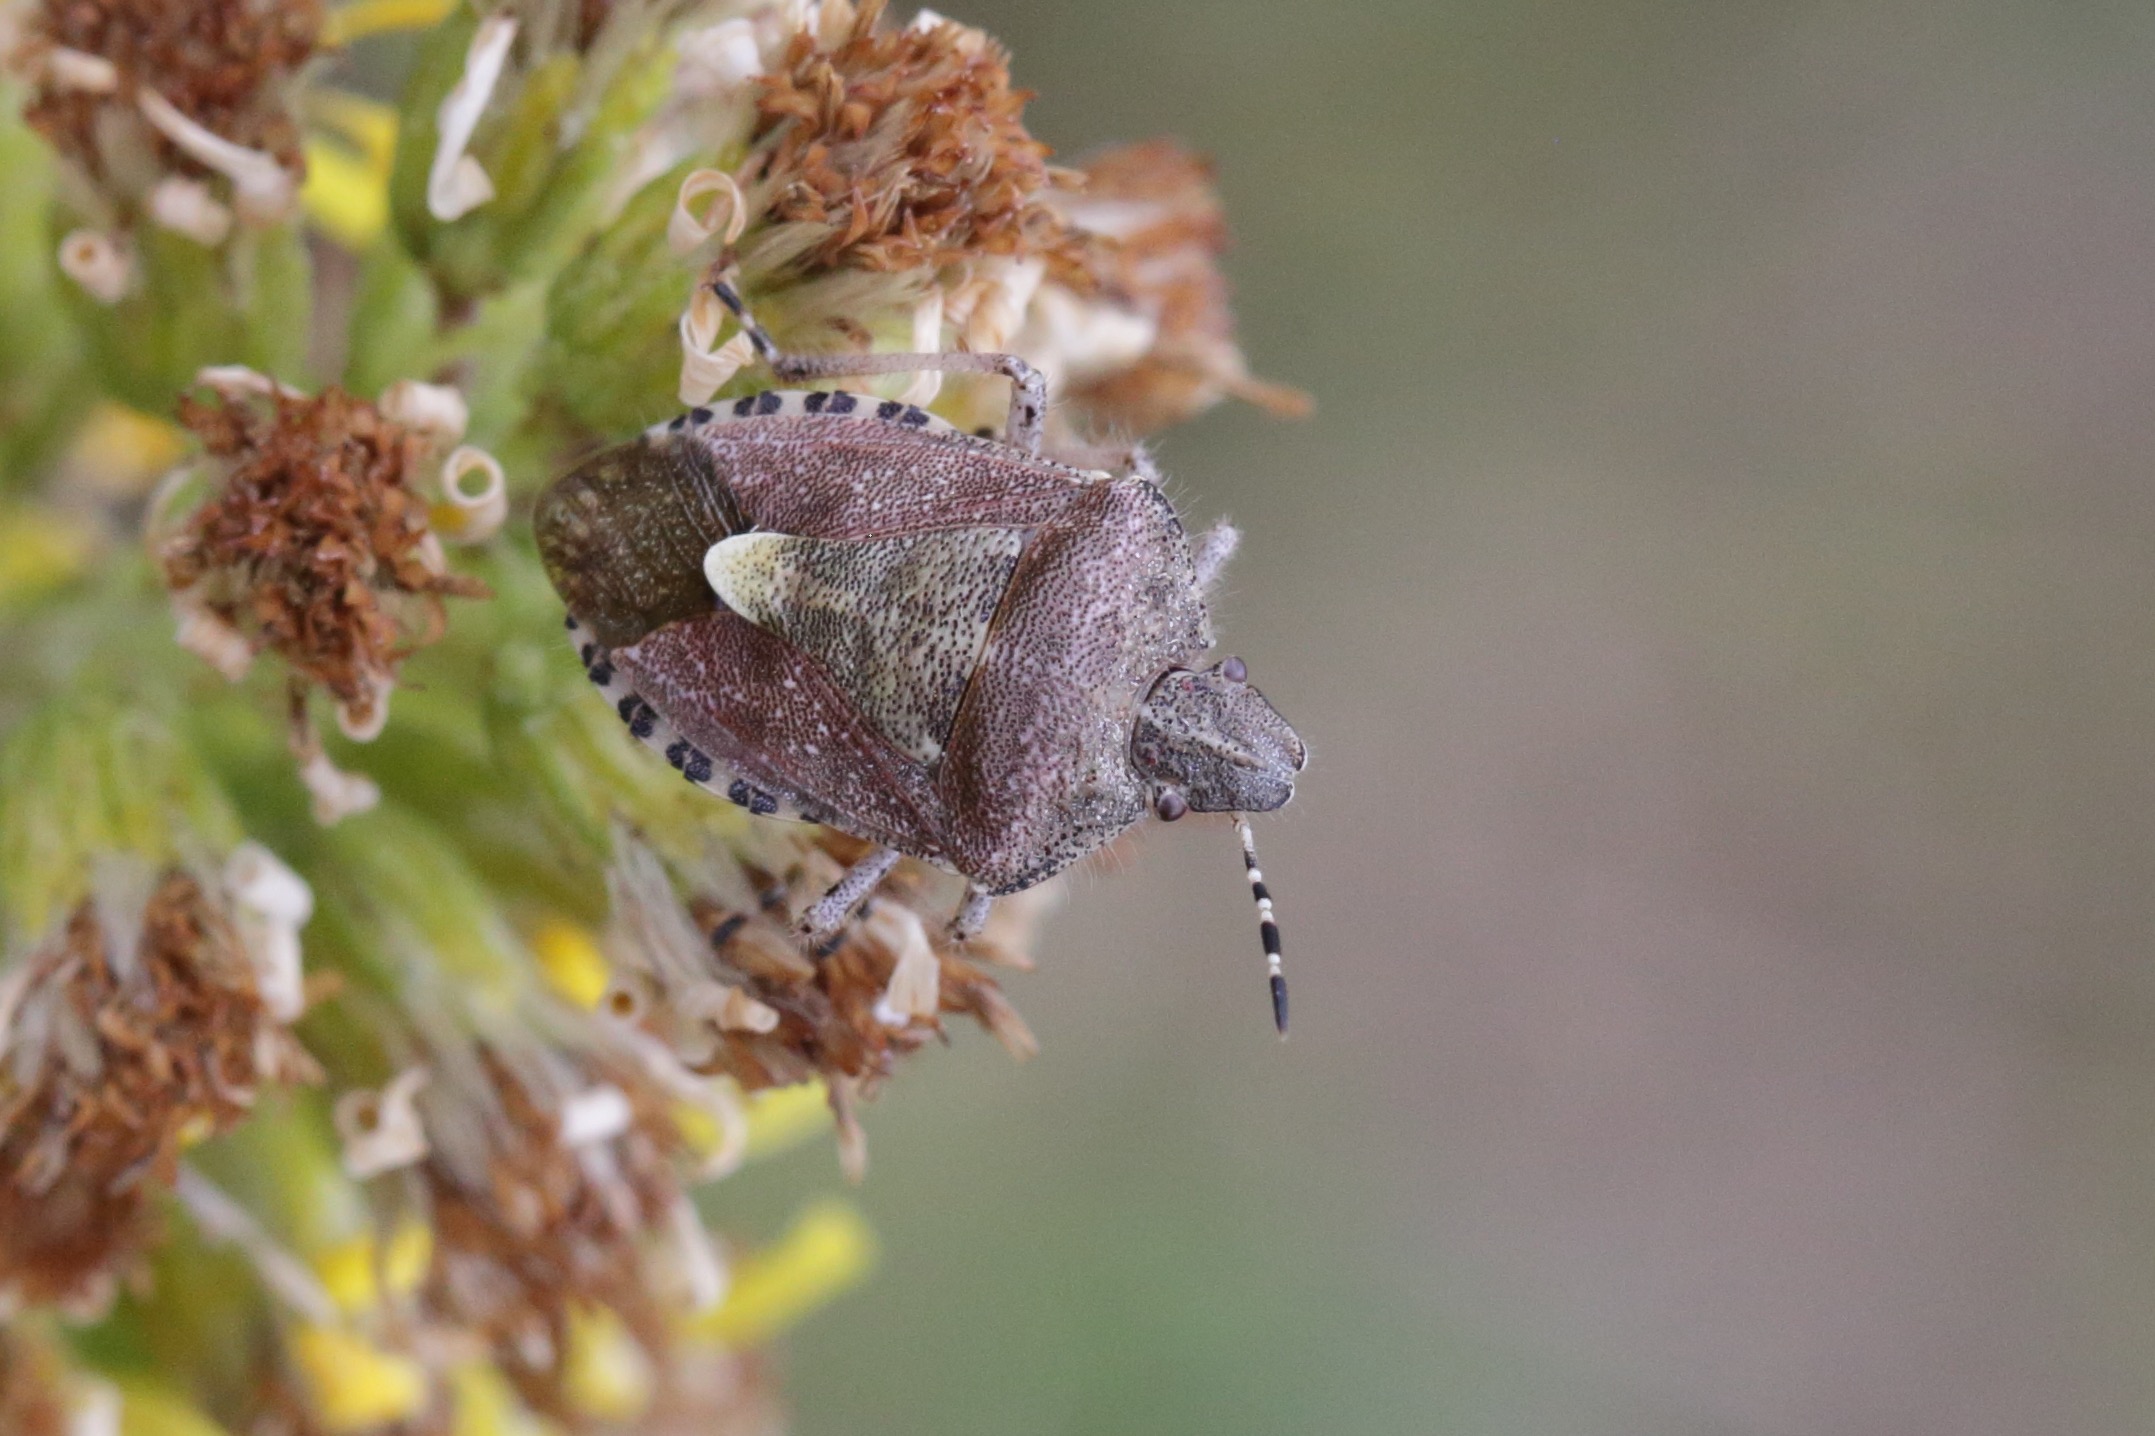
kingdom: Animalia
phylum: Arthropoda
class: Insecta
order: Hemiptera
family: Pentatomidae
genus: Dolycoris
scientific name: Dolycoris baccarum
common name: Almindelig bærtæge
